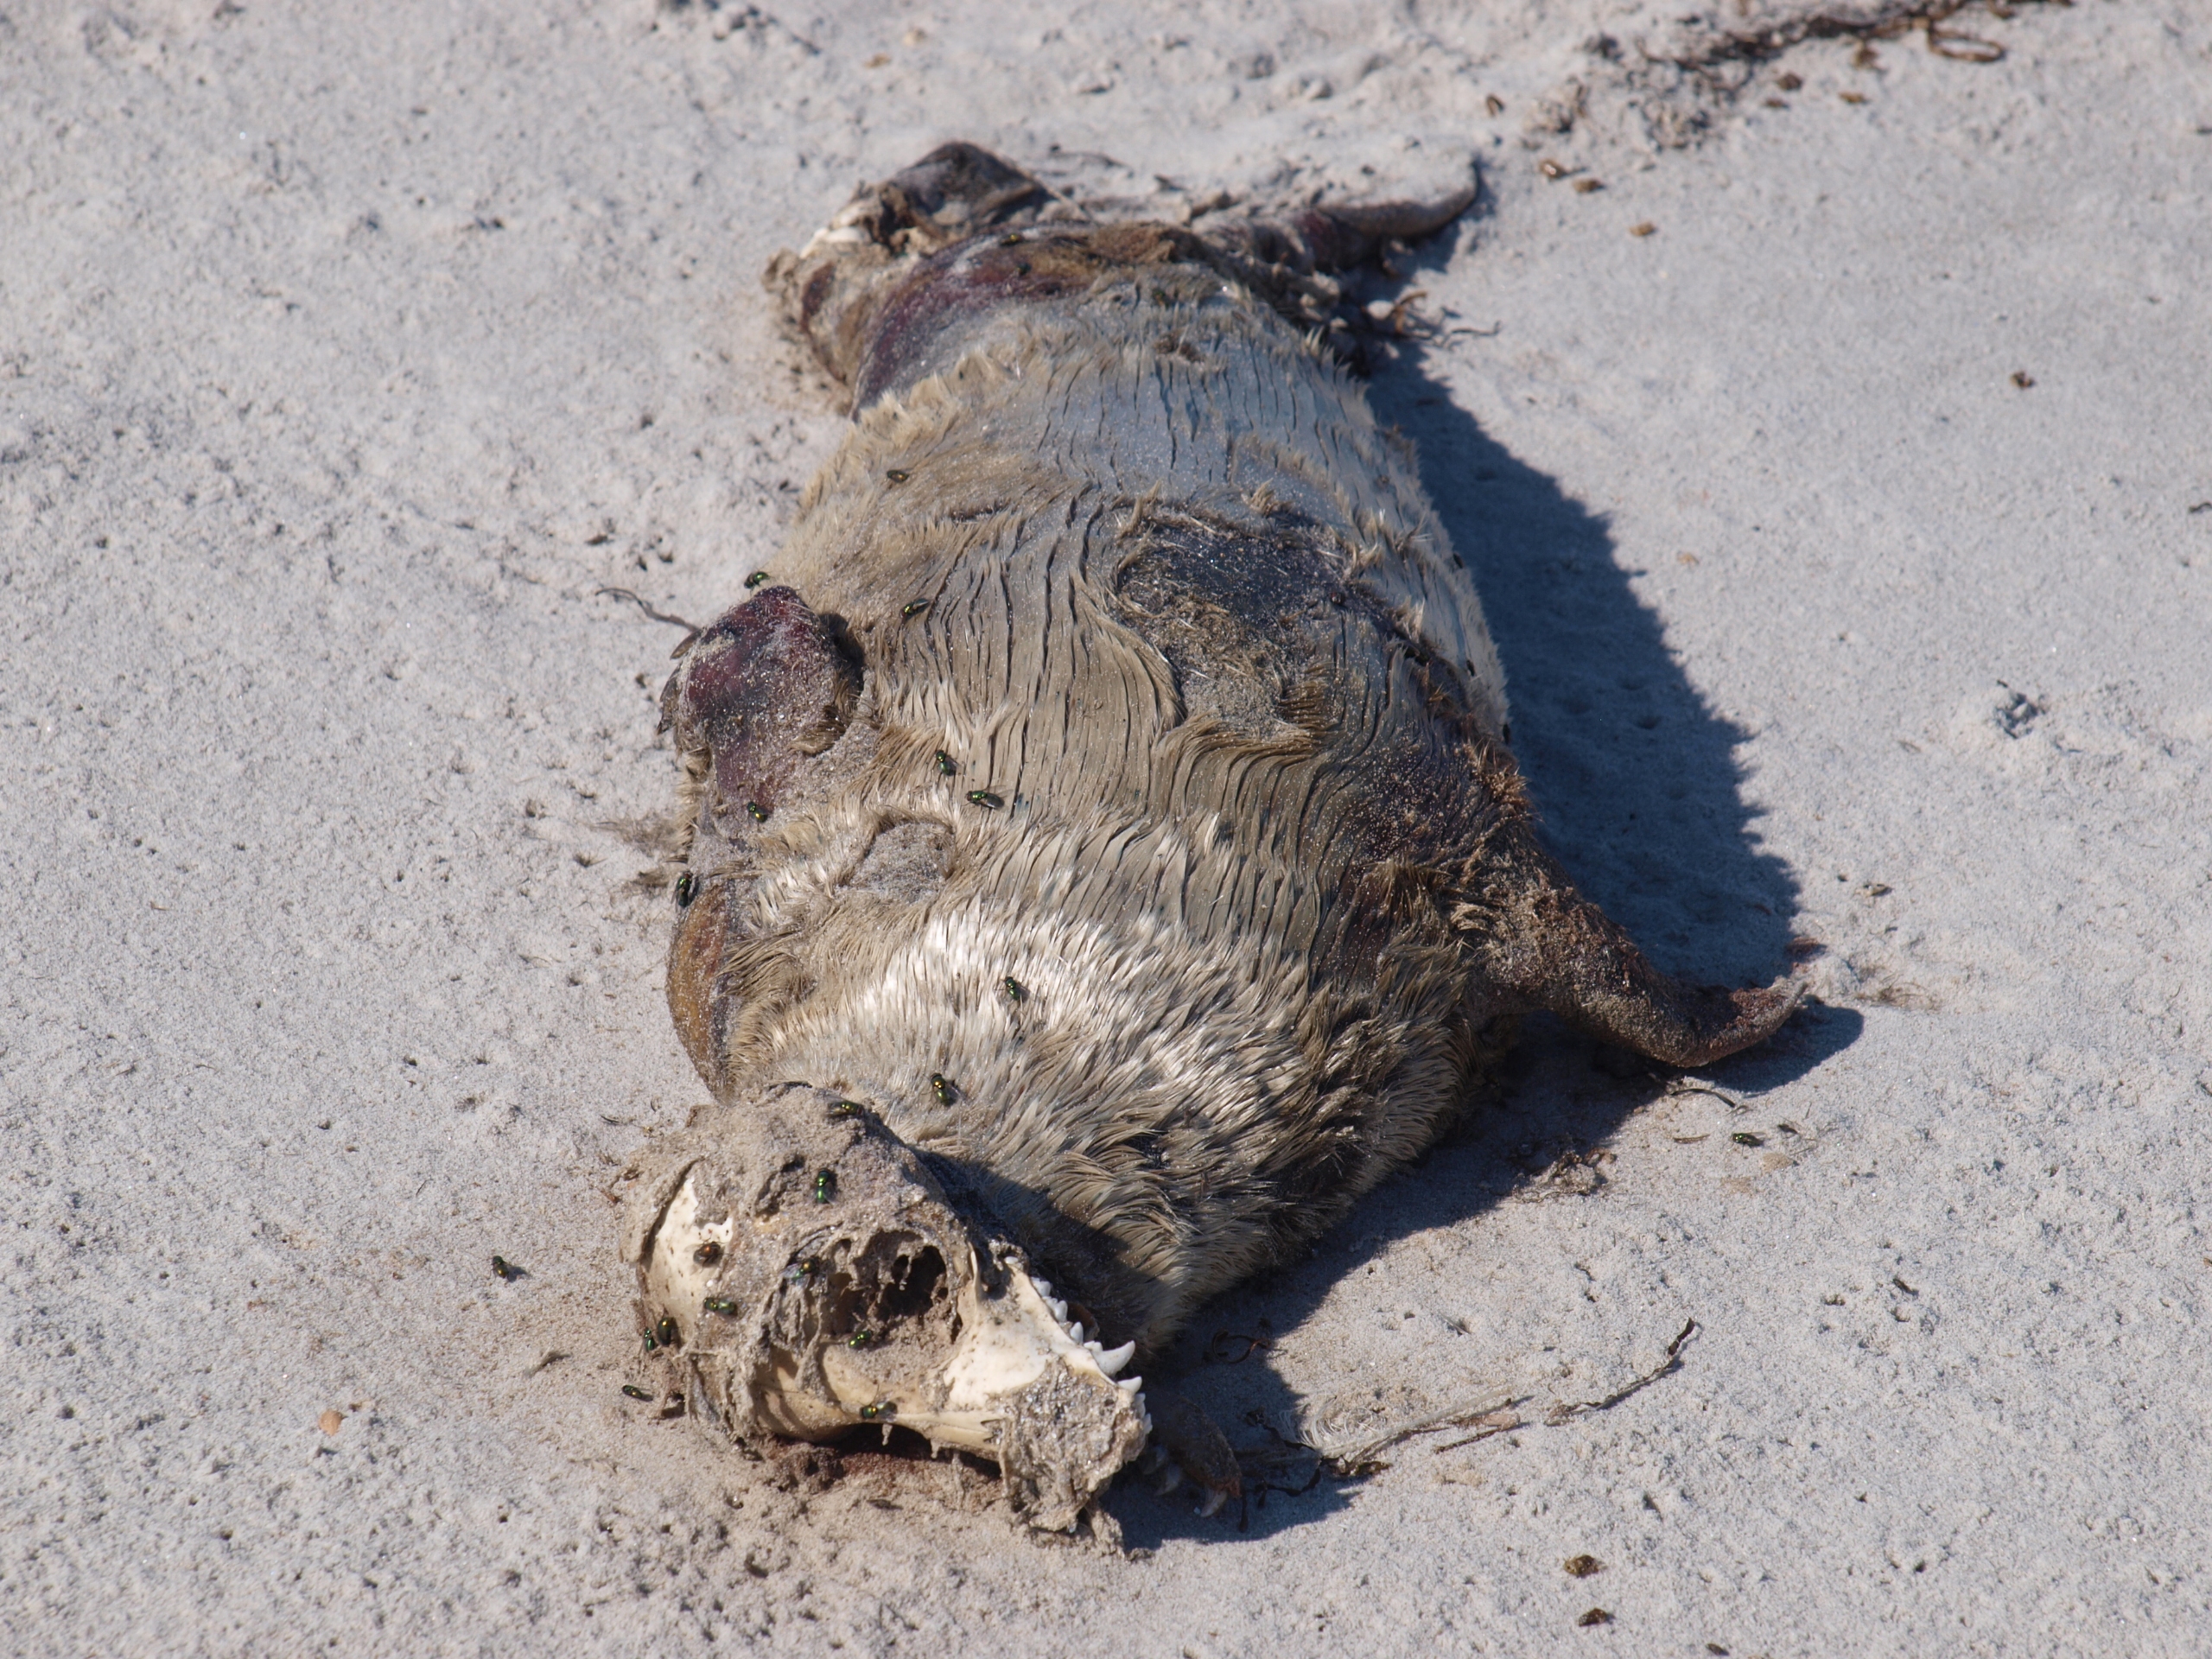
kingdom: Animalia
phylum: Chordata
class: Mammalia
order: Carnivora
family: Phocidae
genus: Phoca
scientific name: Phoca vitulina
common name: Spættet sæl
